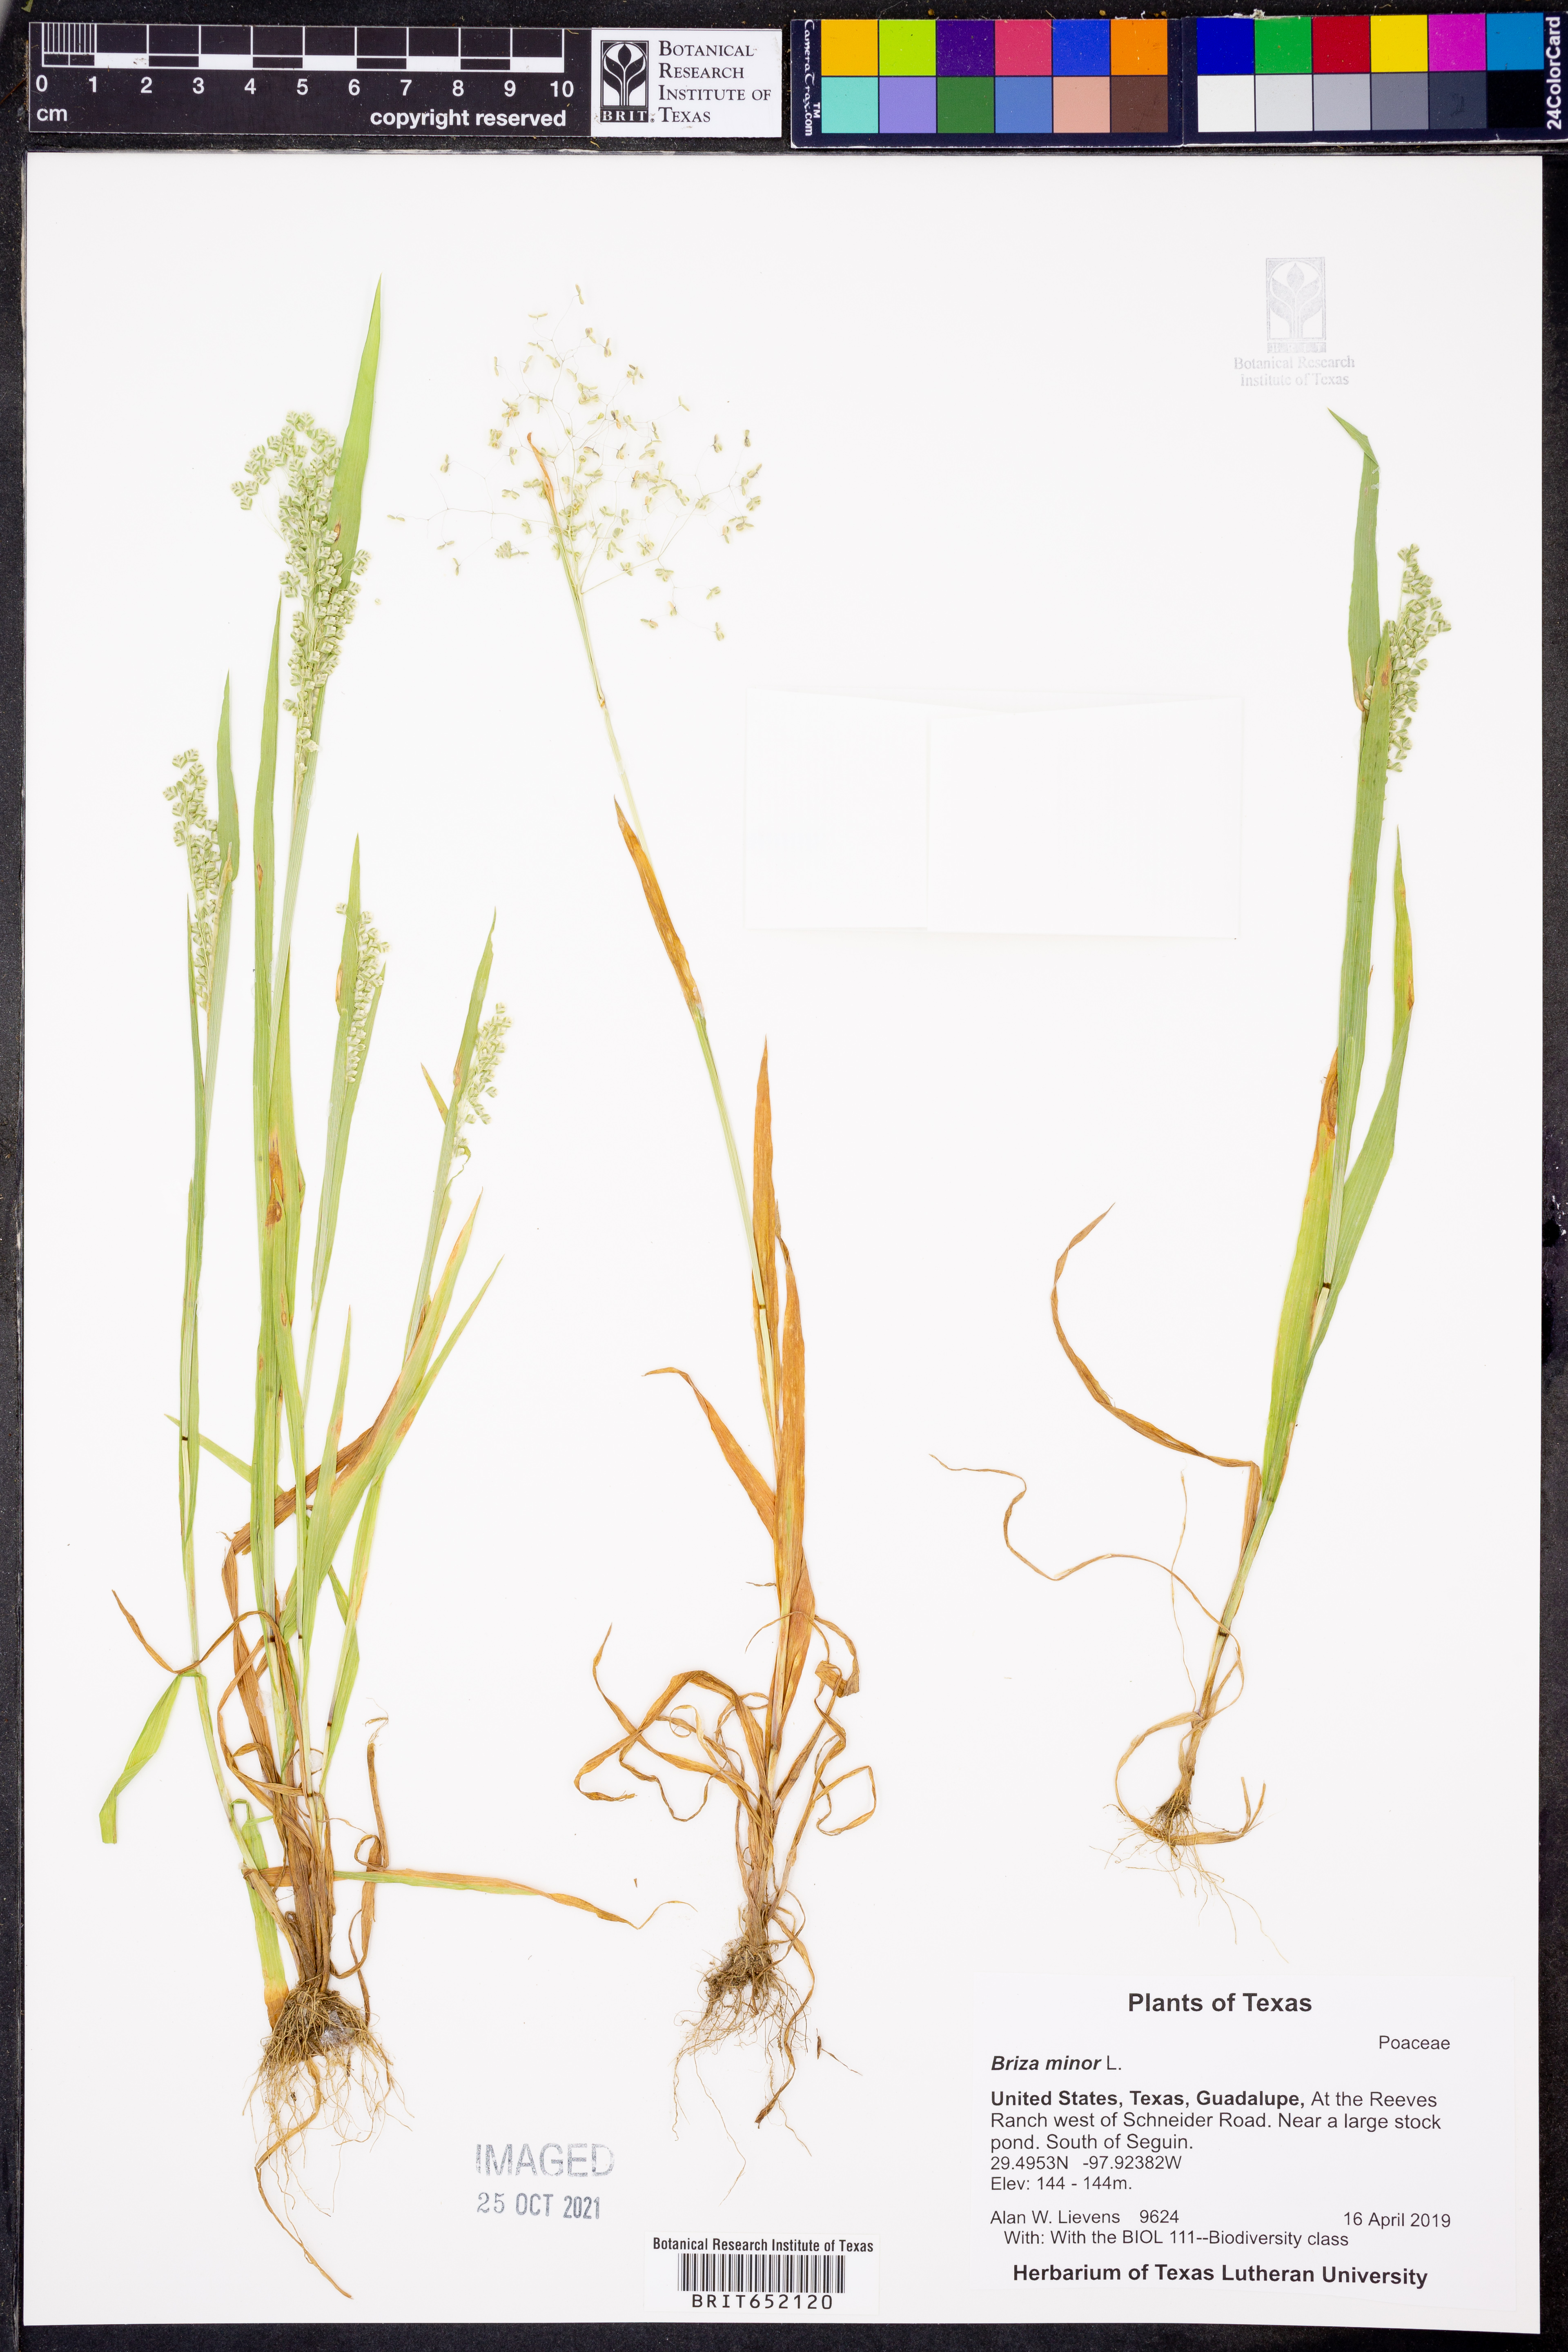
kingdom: Plantae
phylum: Tracheophyta
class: Liliopsida
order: Poales
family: Poaceae
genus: Briza
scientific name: Briza minor
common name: Lesser quaking-grass
